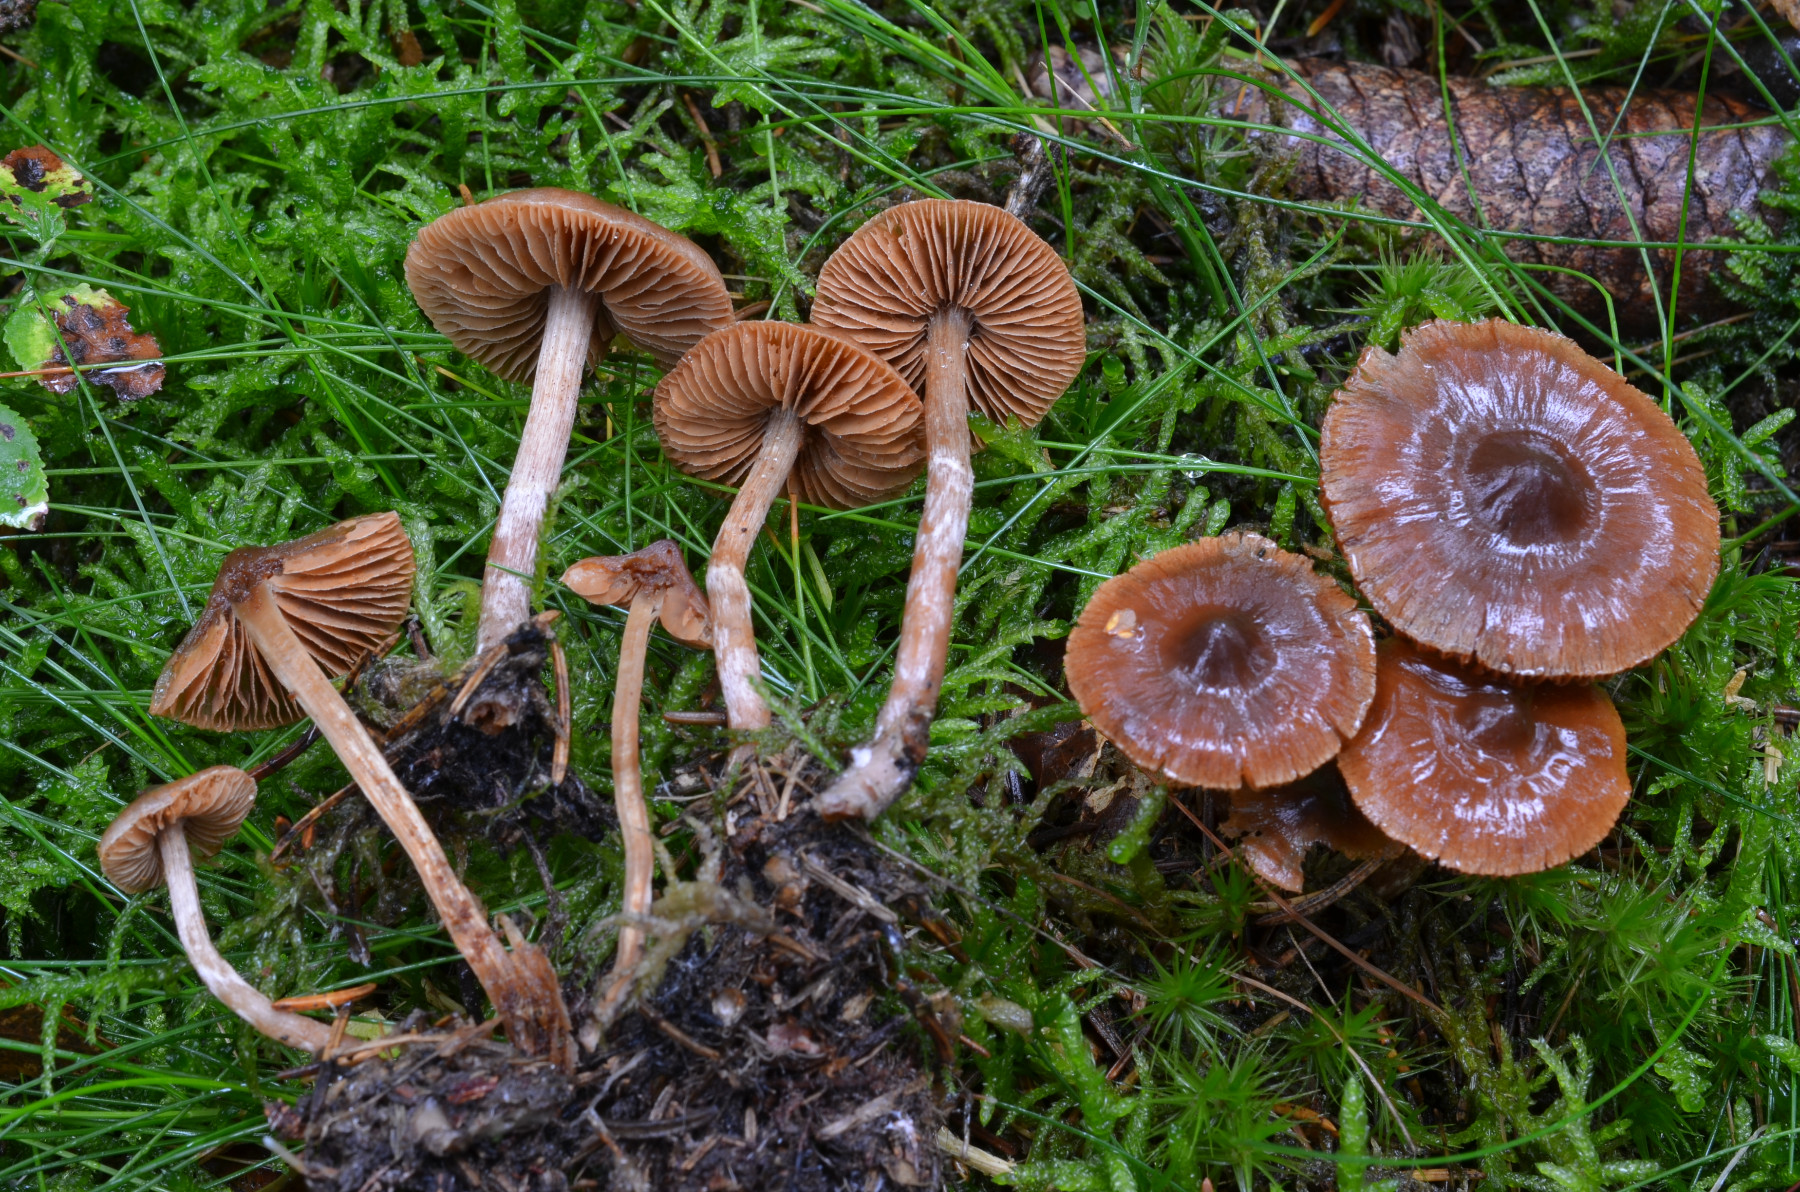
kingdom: Fungi
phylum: Basidiomycota
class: Agaricomycetes
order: Agaricales
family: Cortinariaceae
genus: Cortinarius
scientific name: Cortinarius comptulus
